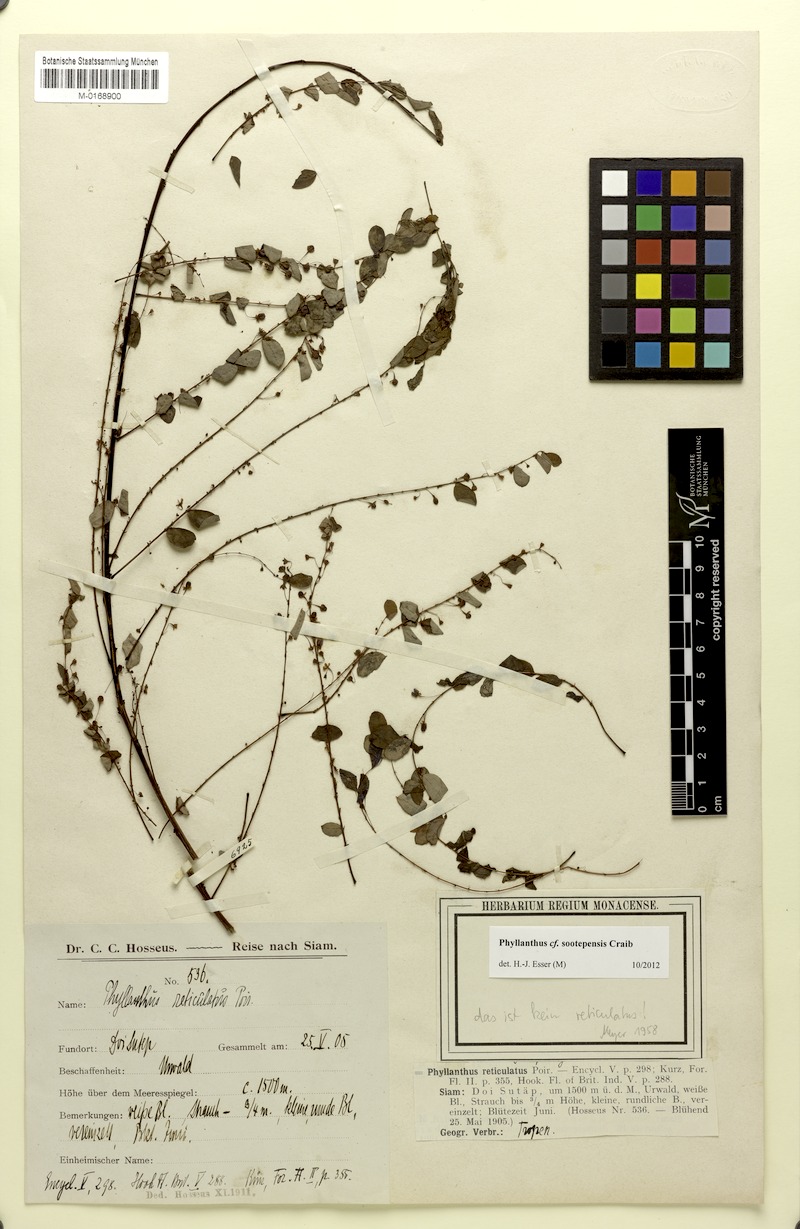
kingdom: Plantae
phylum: Tracheophyta
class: Magnoliopsida
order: Malpighiales
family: Phyllanthaceae
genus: Phyllanthus
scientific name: Phyllanthus sootepensis
